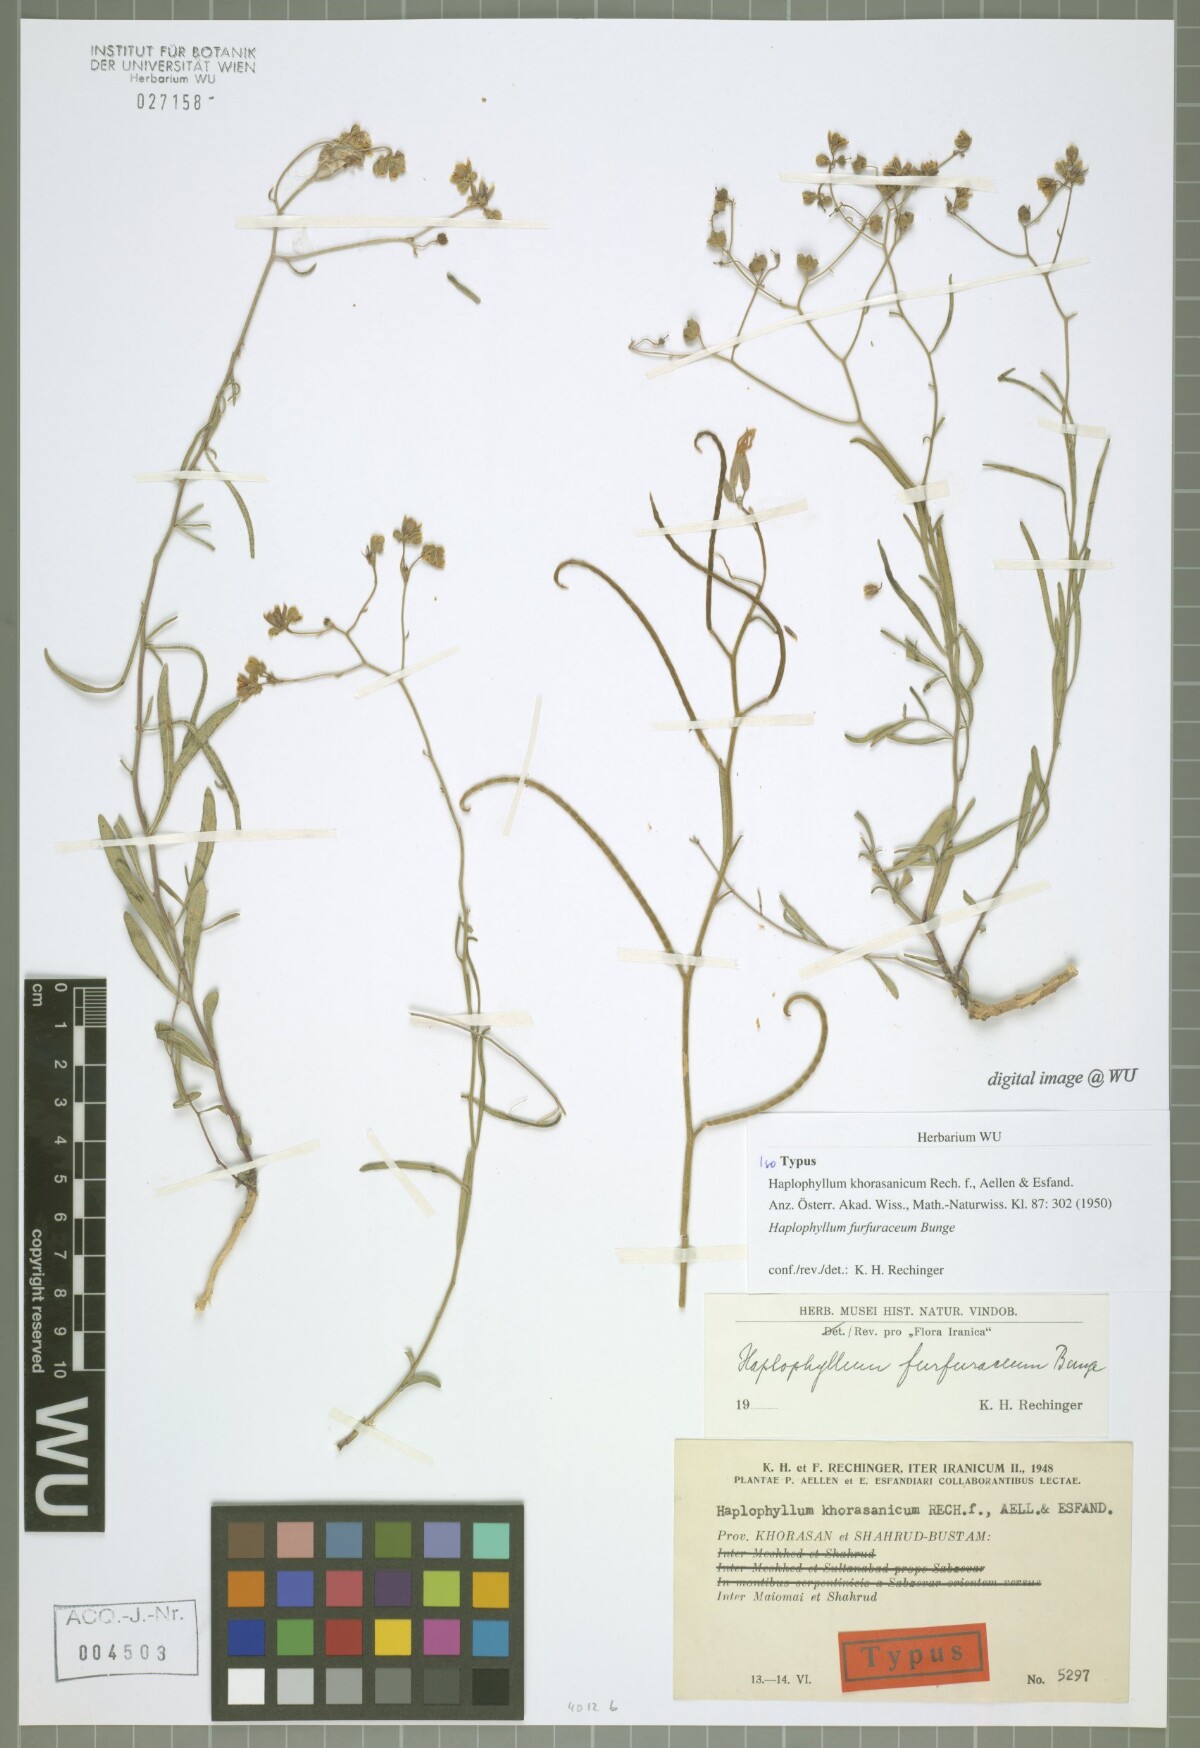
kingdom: Plantae
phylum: Tracheophyta
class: Magnoliopsida
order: Sapindales
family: Rutaceae
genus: Haplophyllum
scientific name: Haplophyllum furfuraceum
